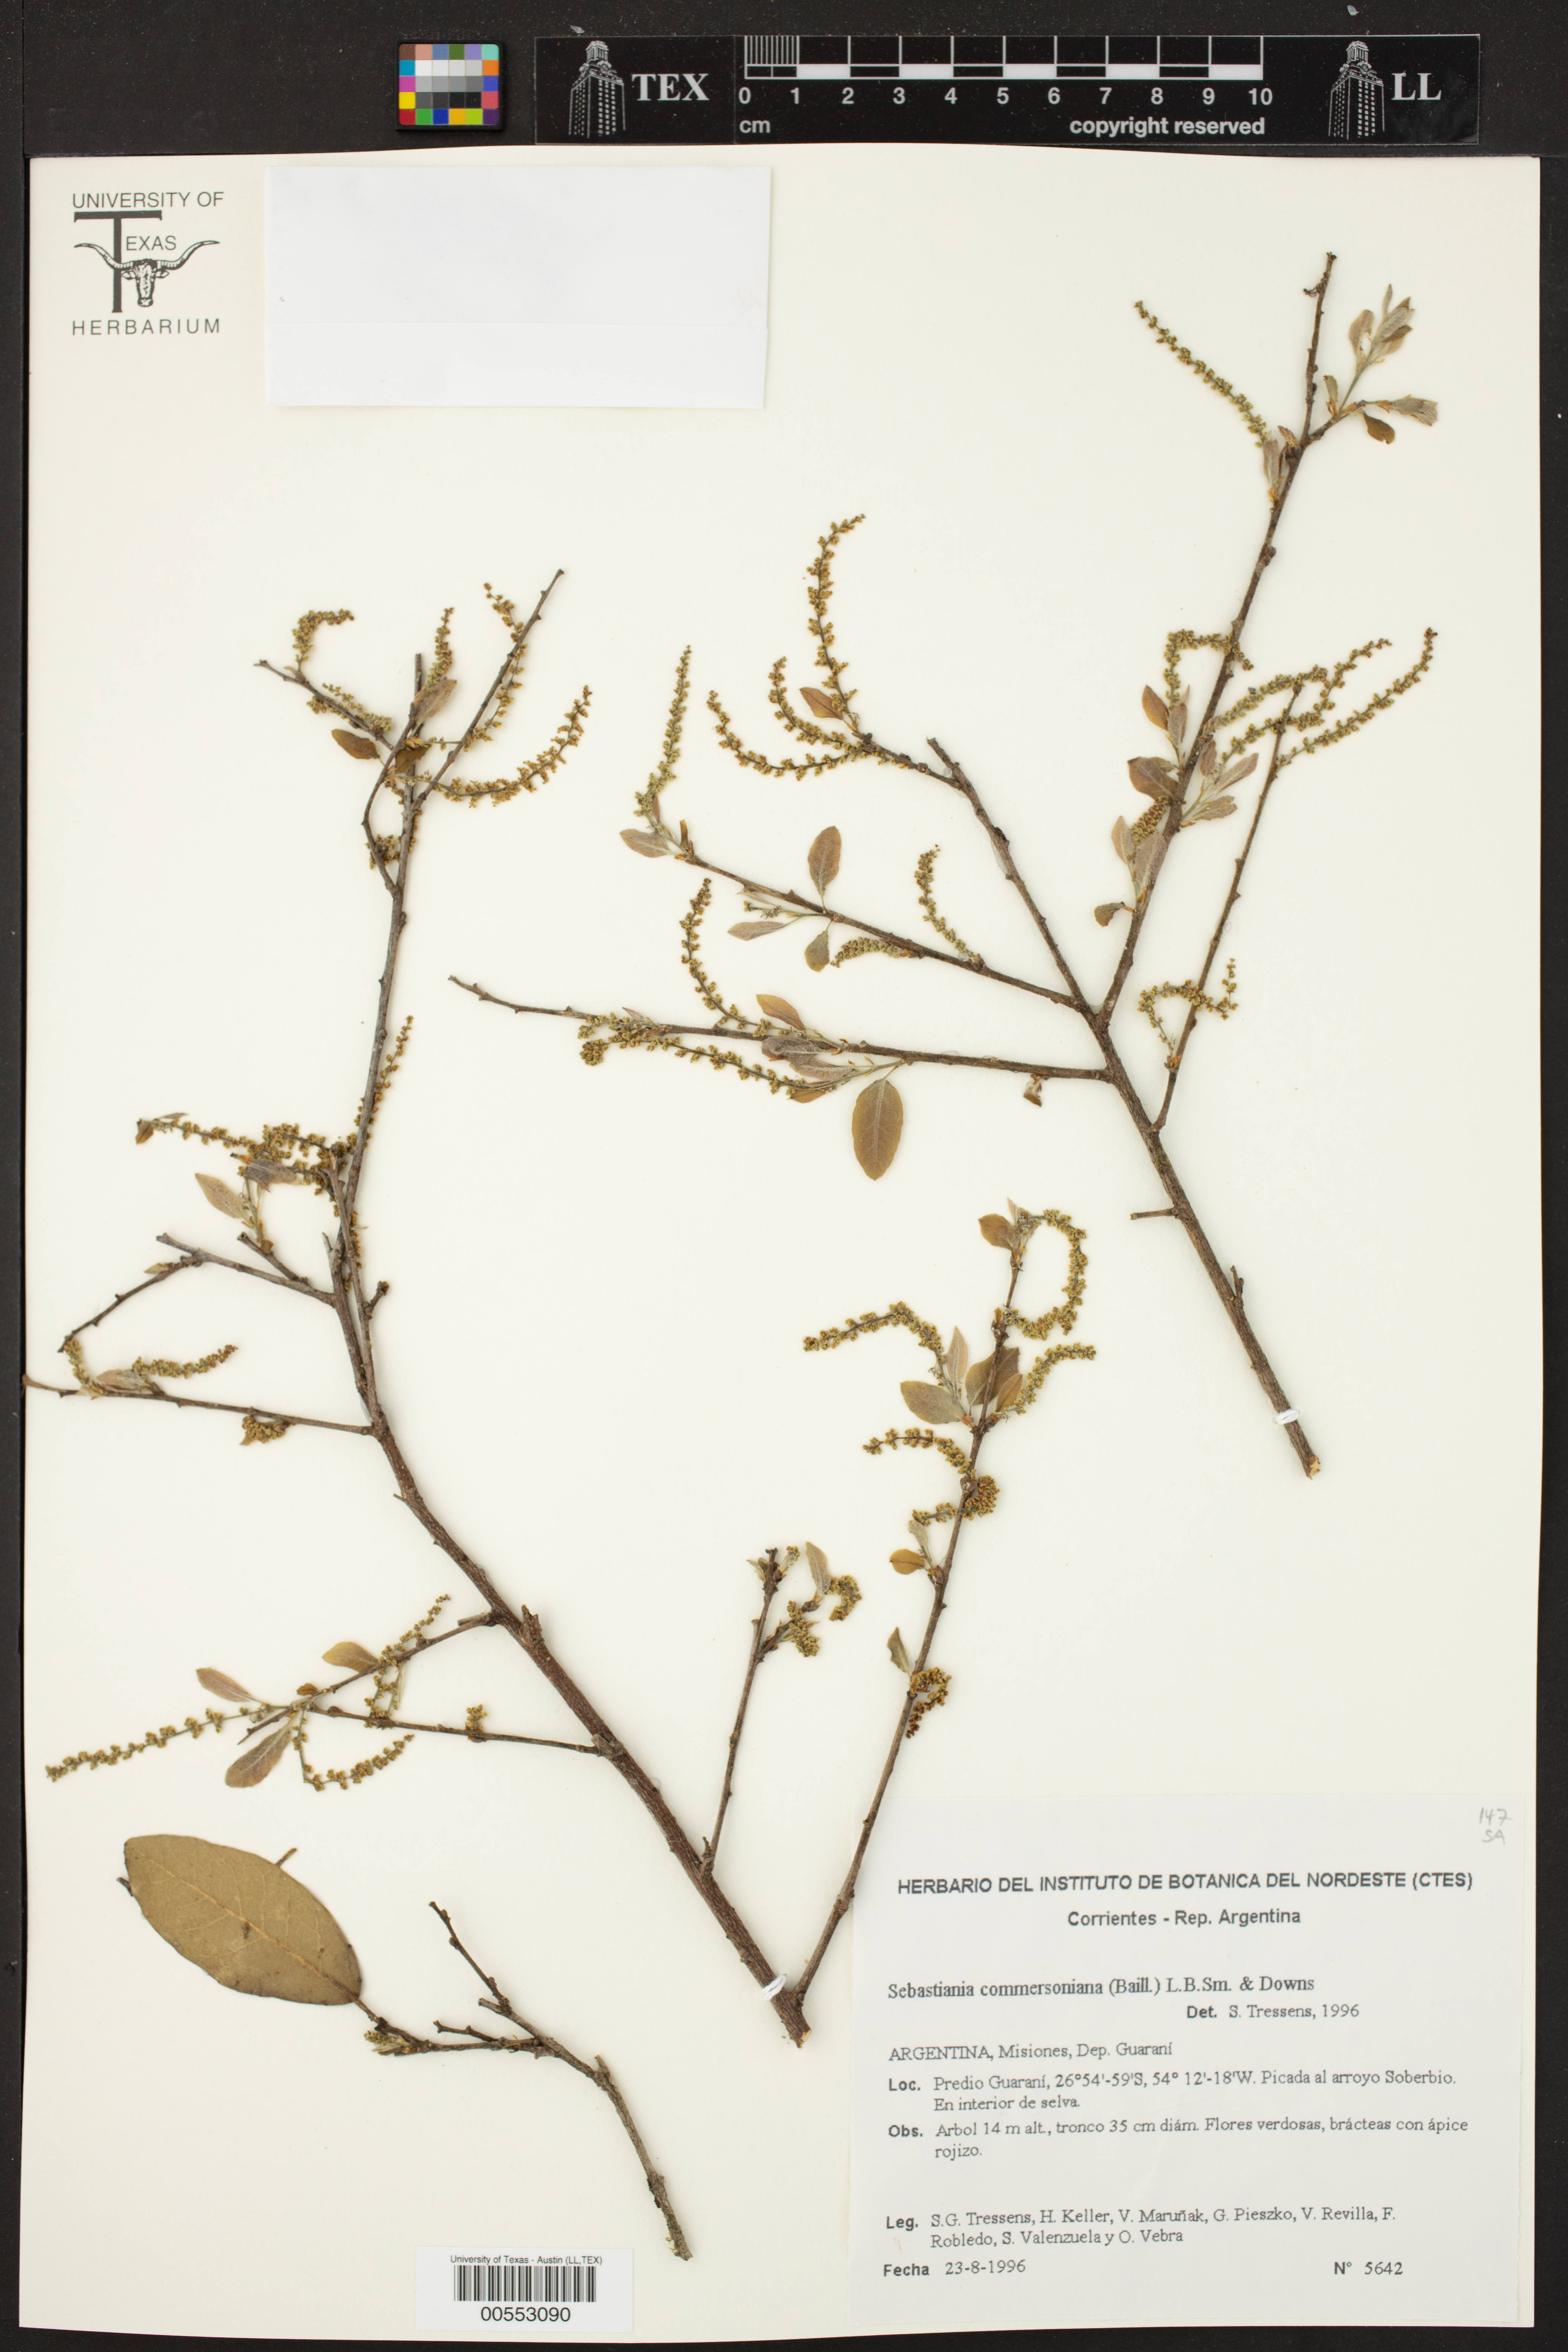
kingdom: Plantae
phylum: Tracheophyta
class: Magnoliopsida
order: Malpighiales
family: Euphorbiaceae
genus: Sebastiania
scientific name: Sebastiania klotzschiana
